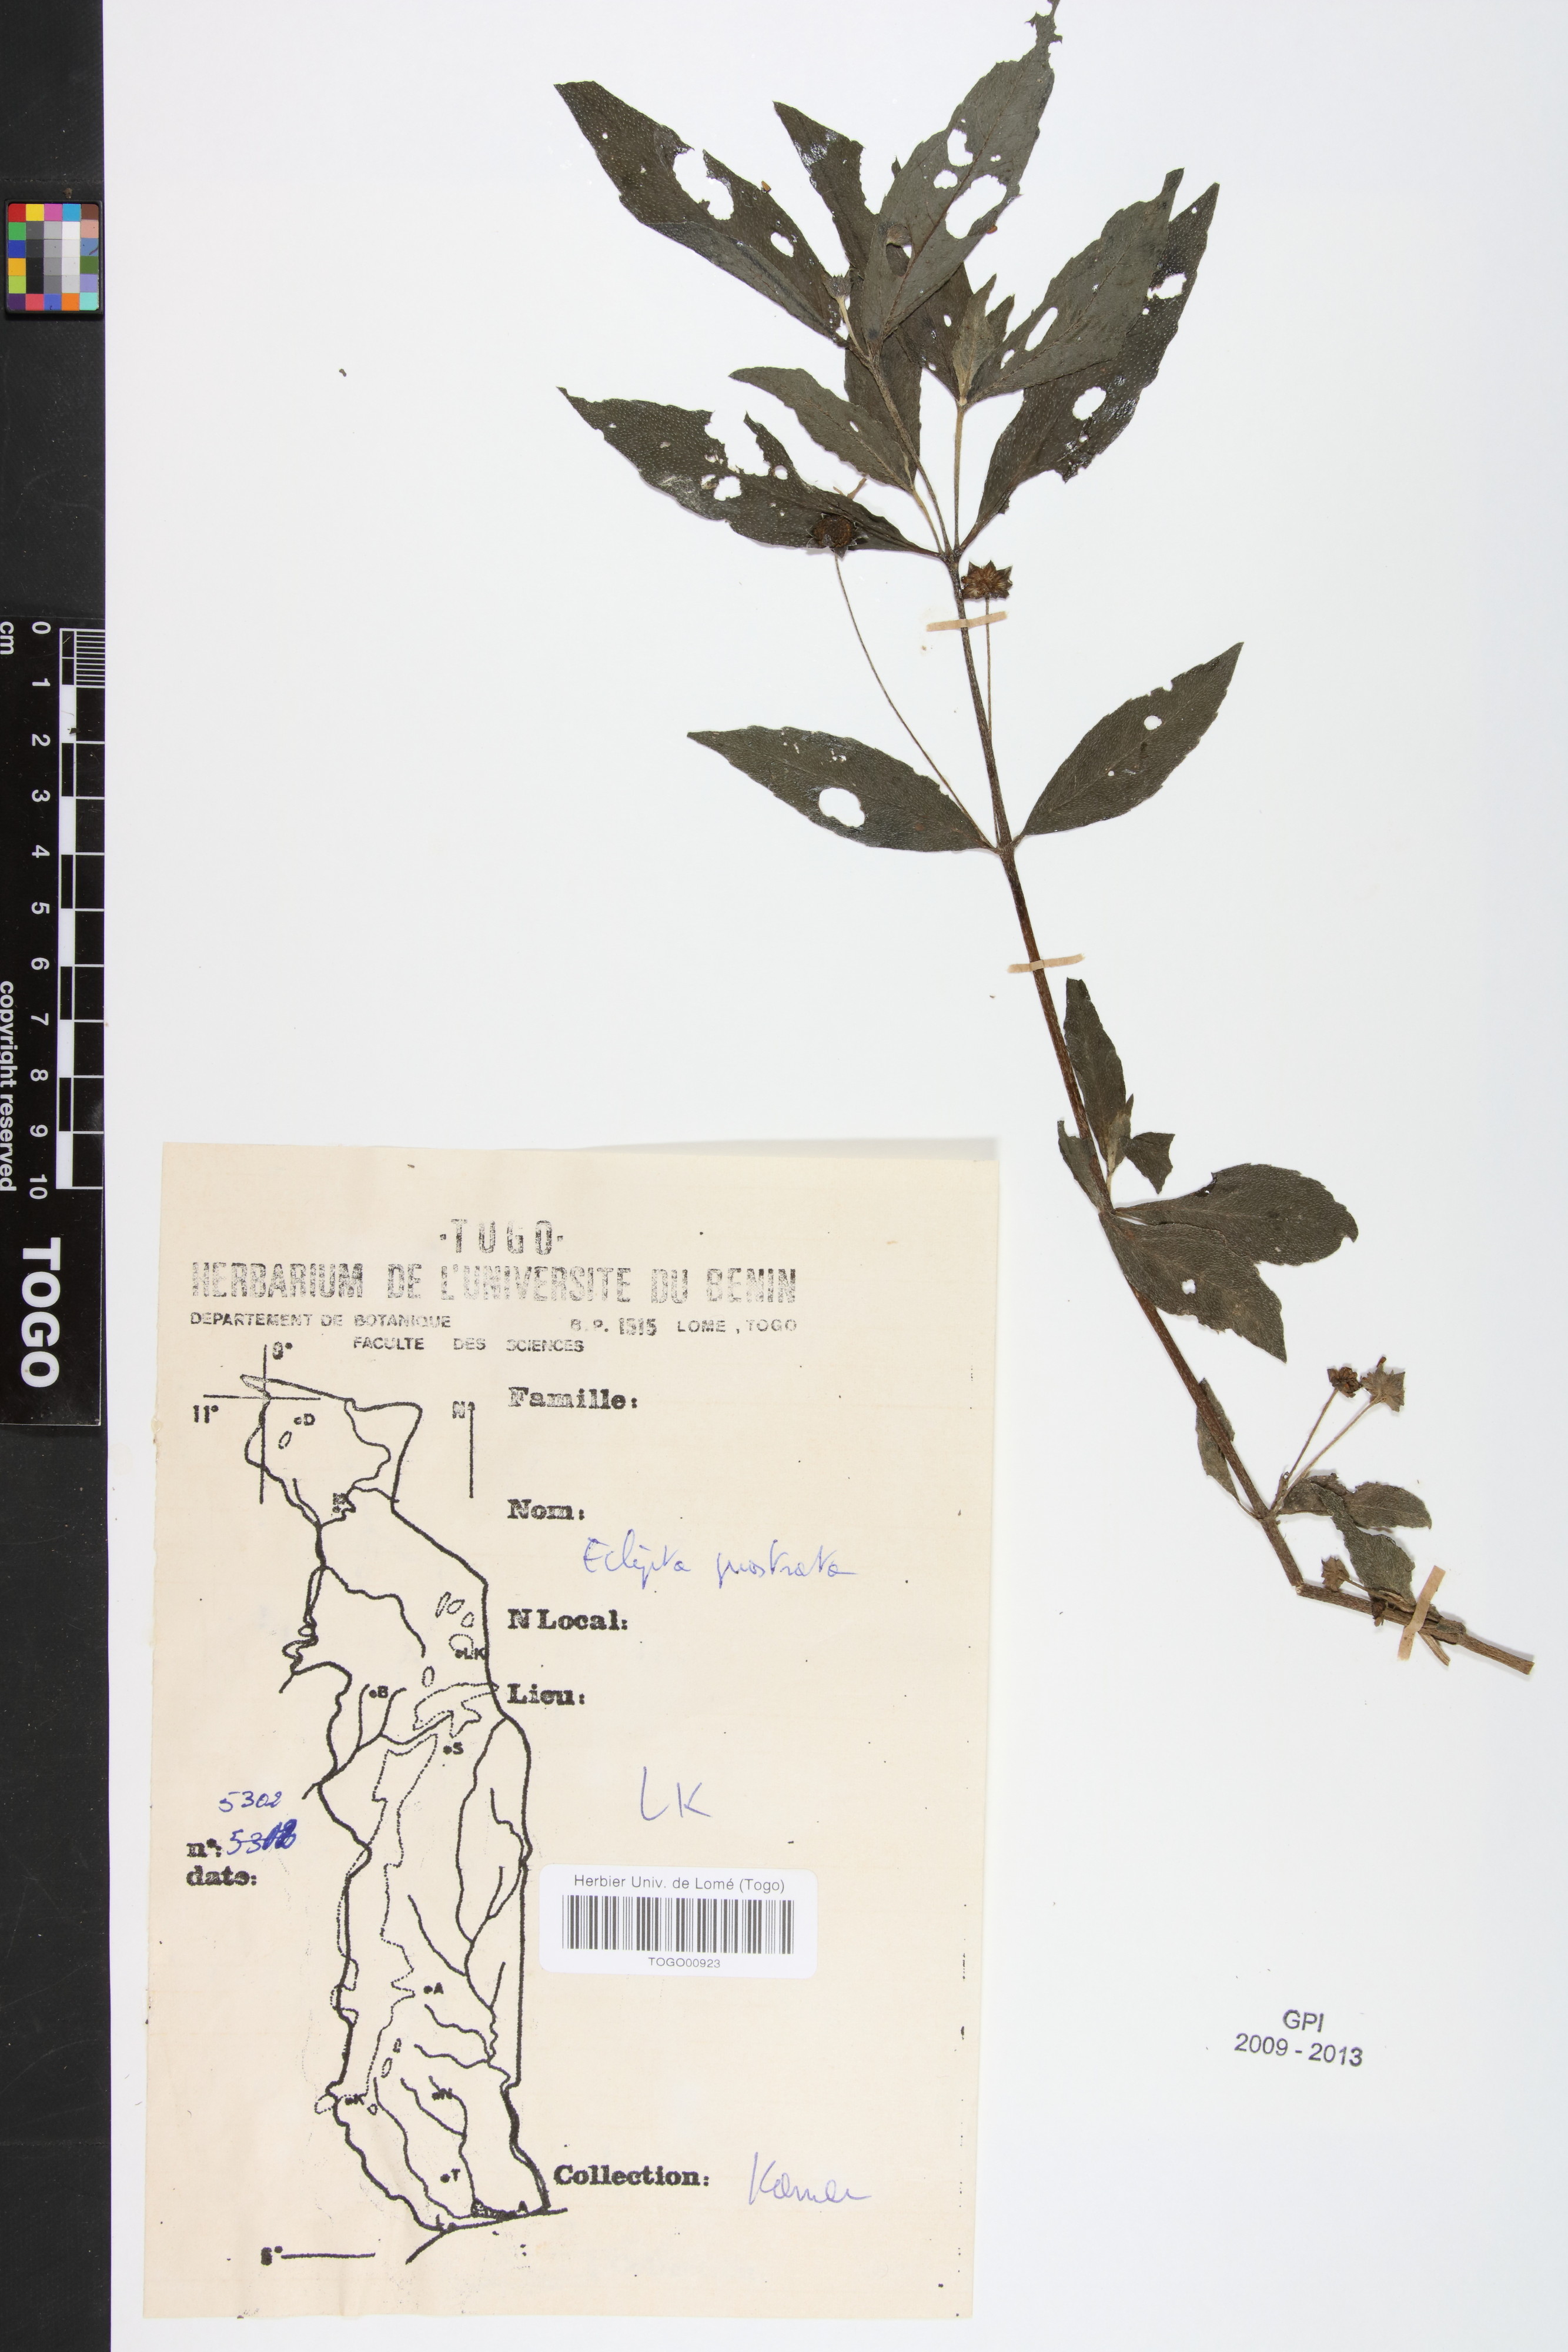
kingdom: Plantae
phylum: Tracheophyta
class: Magnoliopsida
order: Asterales
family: Asteraceae
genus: Eclipta
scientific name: Eclipta prostrata
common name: False daisy
